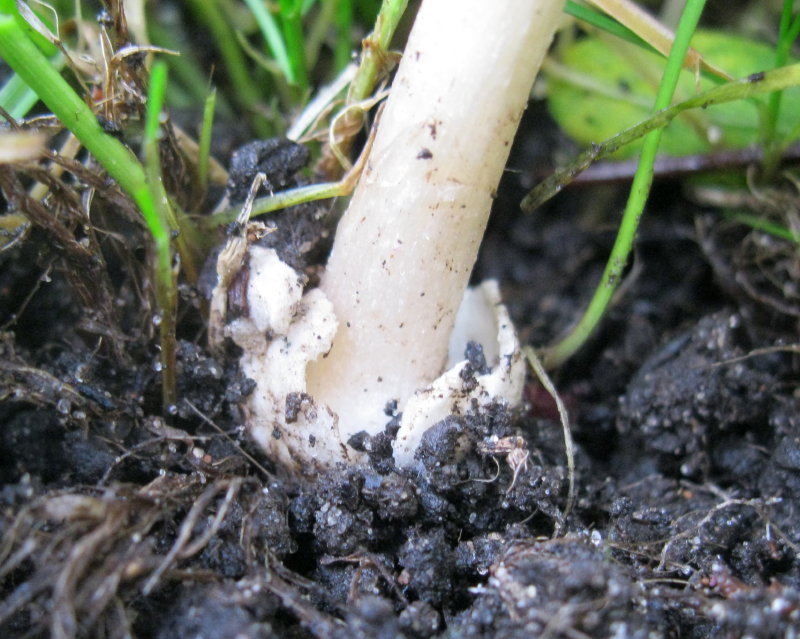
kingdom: Fungi
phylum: Basidiomycota
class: Agaricomycetes
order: Agaricales
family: Pluteaceae
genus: Volvariella
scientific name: Volvariella hypopithys
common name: dunstokket posesvamp
